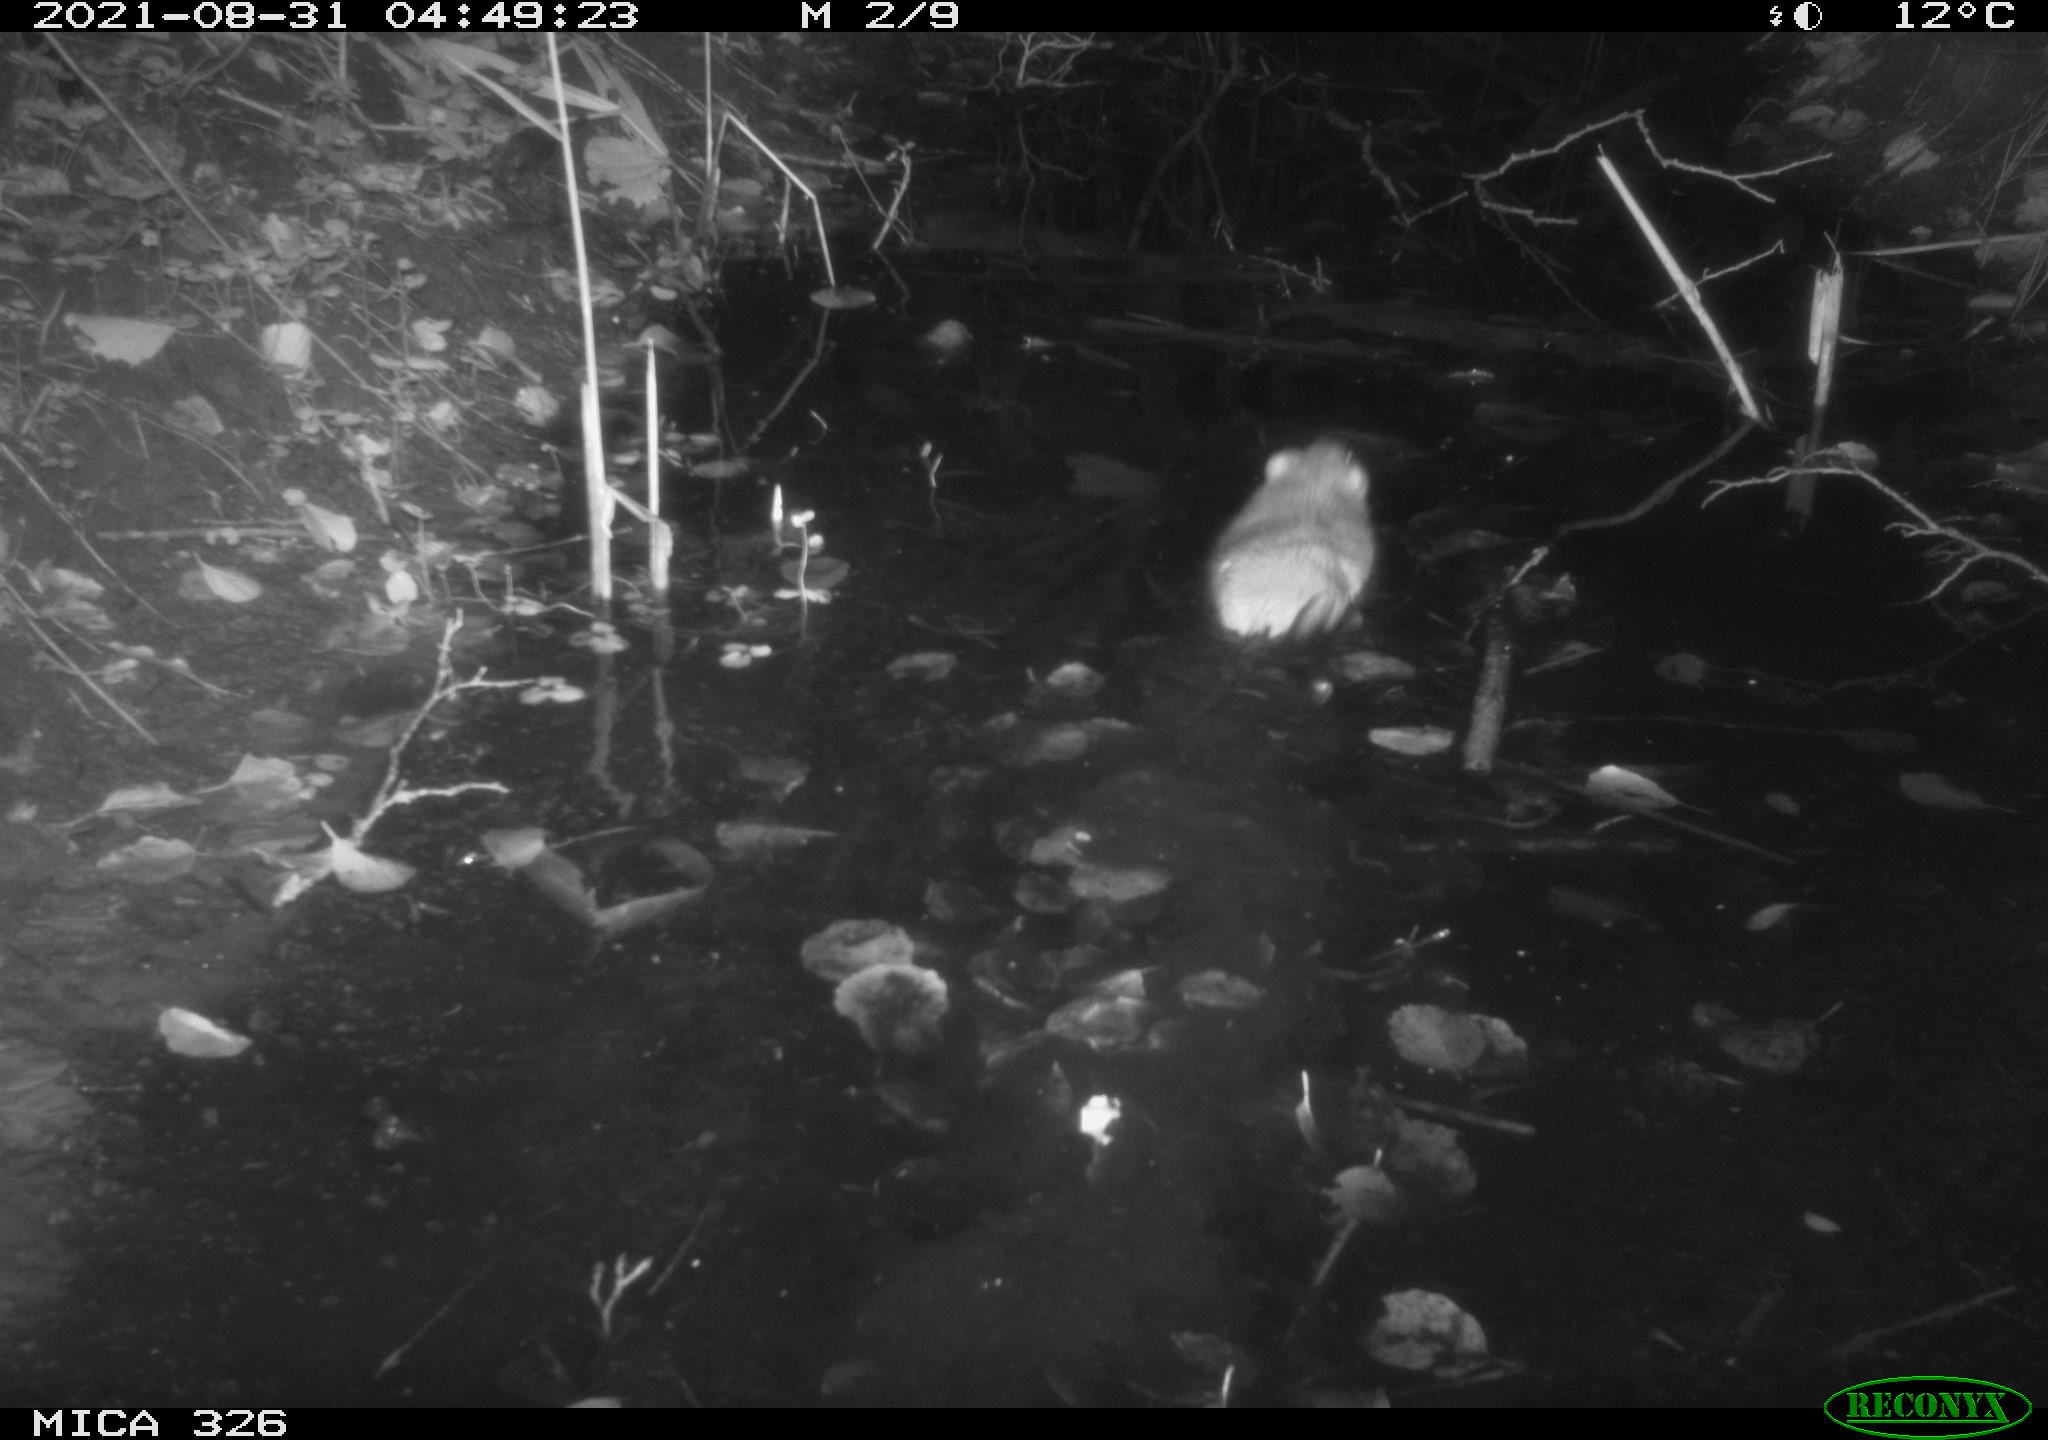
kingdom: Animalia
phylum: Chordata
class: Mammalia
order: Rodentia
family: Cricetidae
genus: Ondatra
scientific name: Ondatra zibethicus
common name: Muskrat
